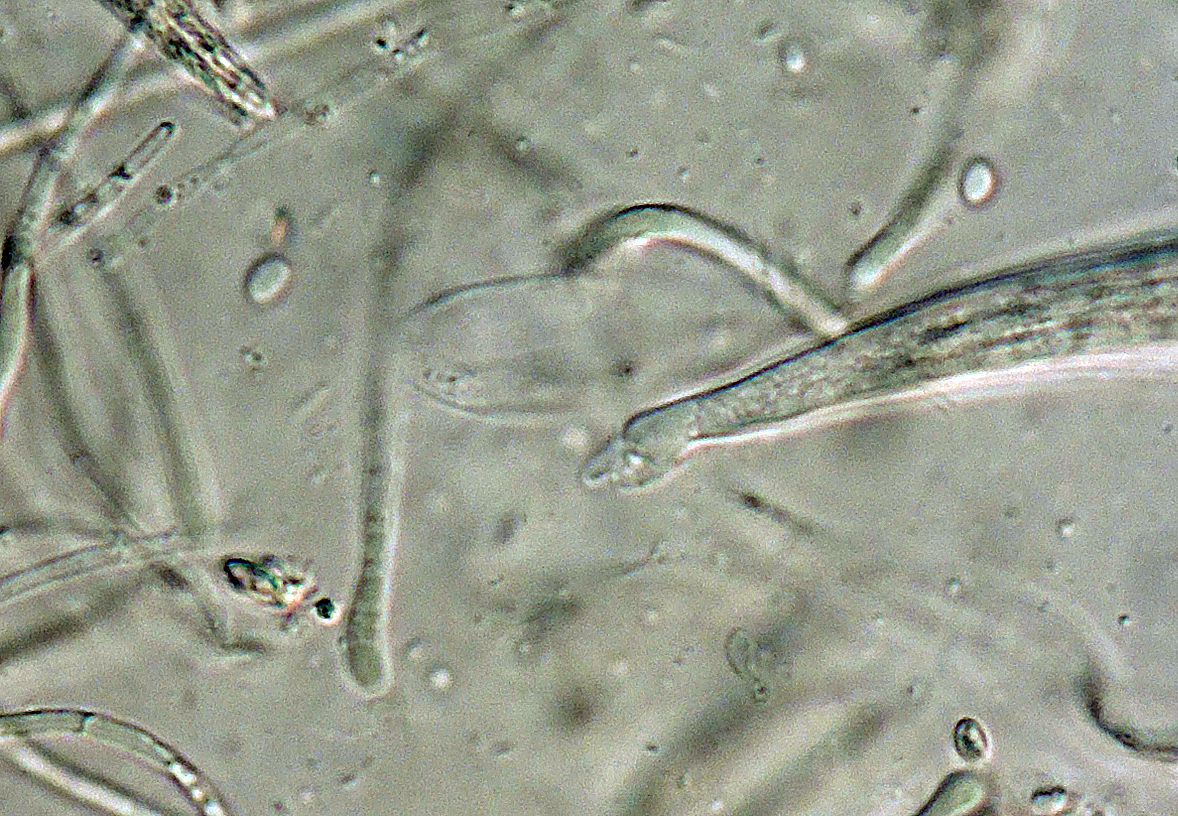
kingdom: Fungi
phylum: Ascomycota
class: Leotiomycetes
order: Helotiales
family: Helotiaceae
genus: Gorgoniceps
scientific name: Gorgoniceps
